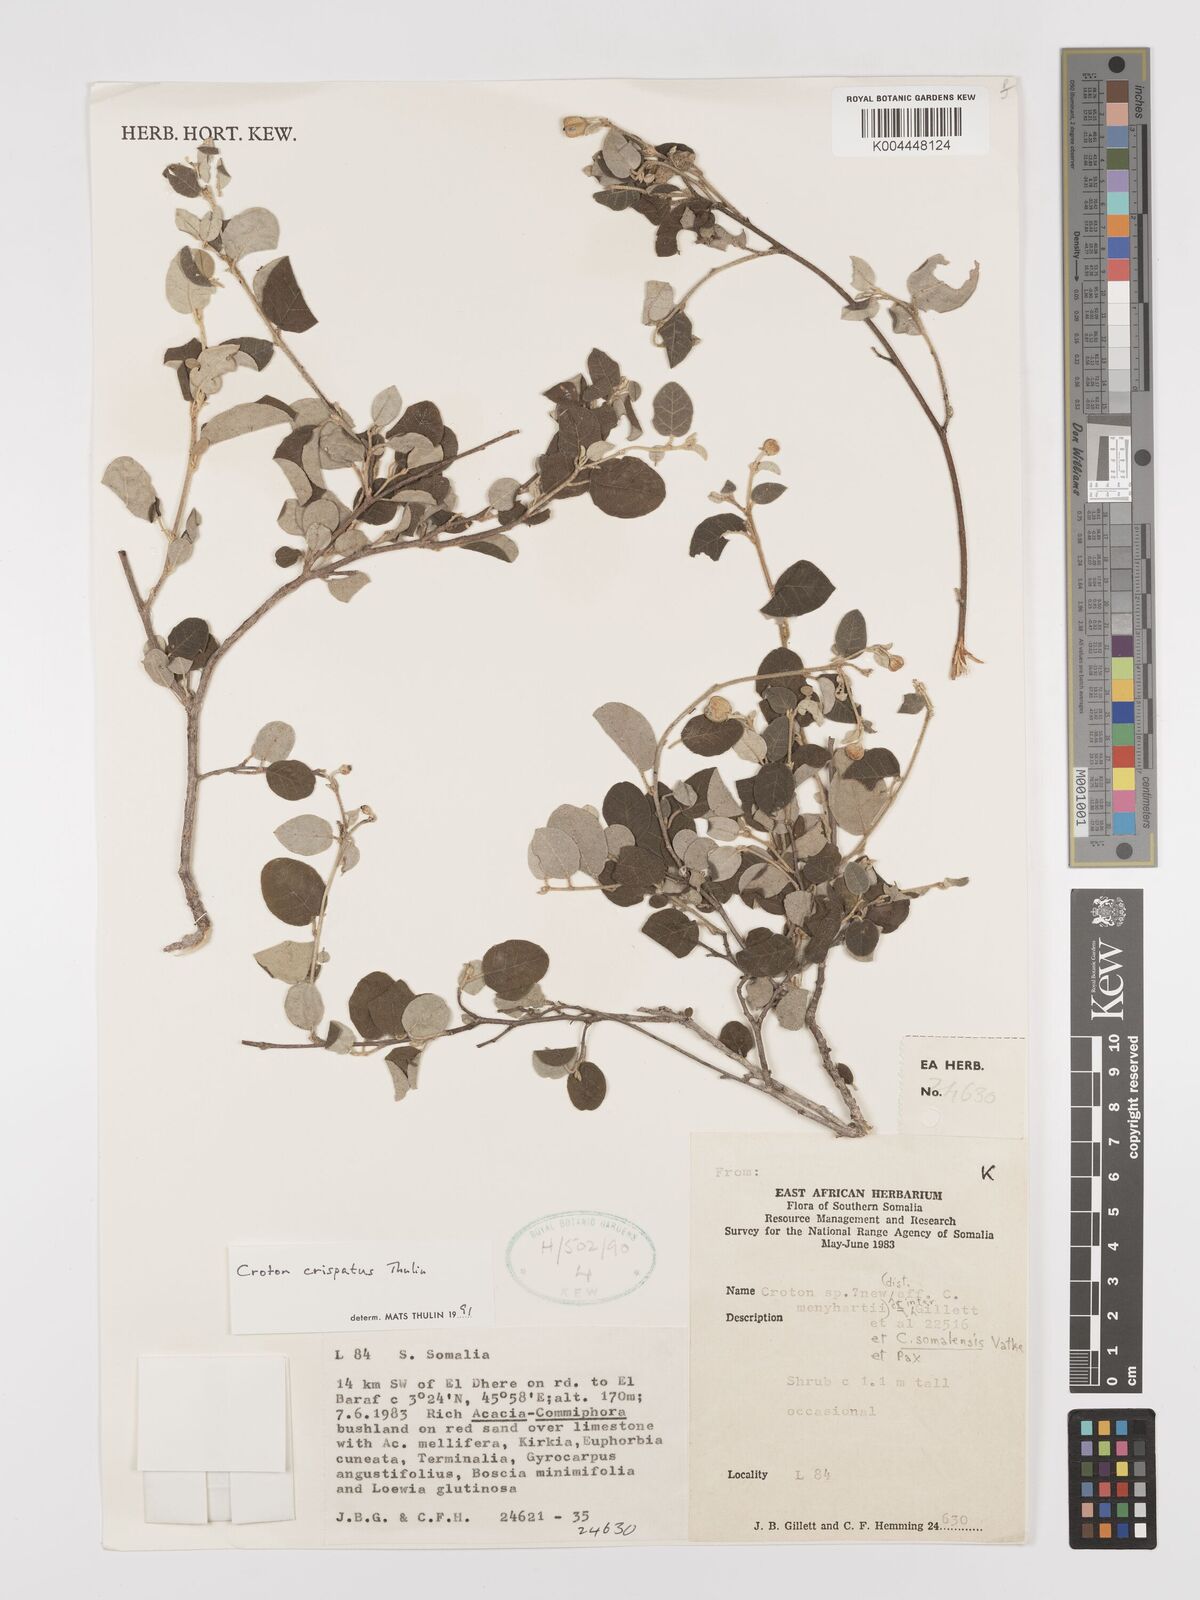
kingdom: Plantae
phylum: Tracheophyta
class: Magnoliopsida
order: Malpighiales
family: Euphorbiaceae
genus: Croton
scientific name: Croton crispatus
